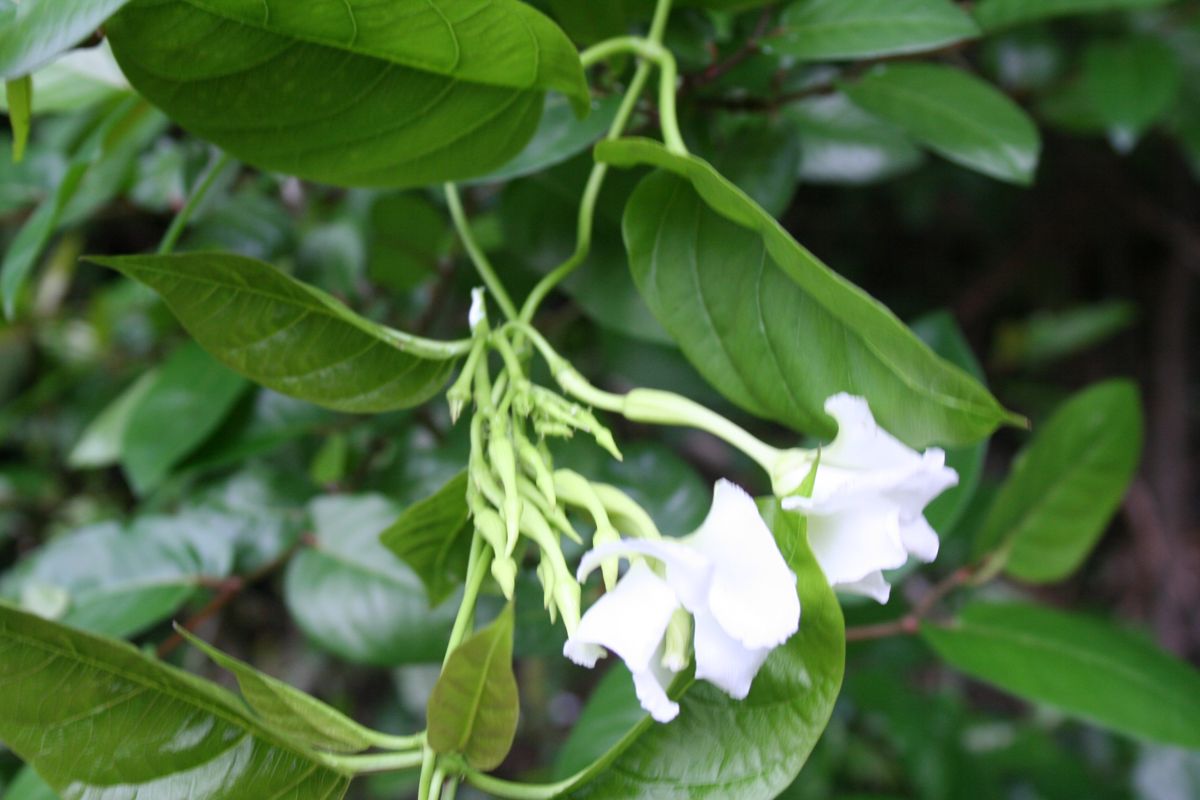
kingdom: Plantae
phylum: Tracheophyta
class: Magnoliopsida
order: Gentianales
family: Apocynaceae
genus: Echites
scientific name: Echites yucatanensis
